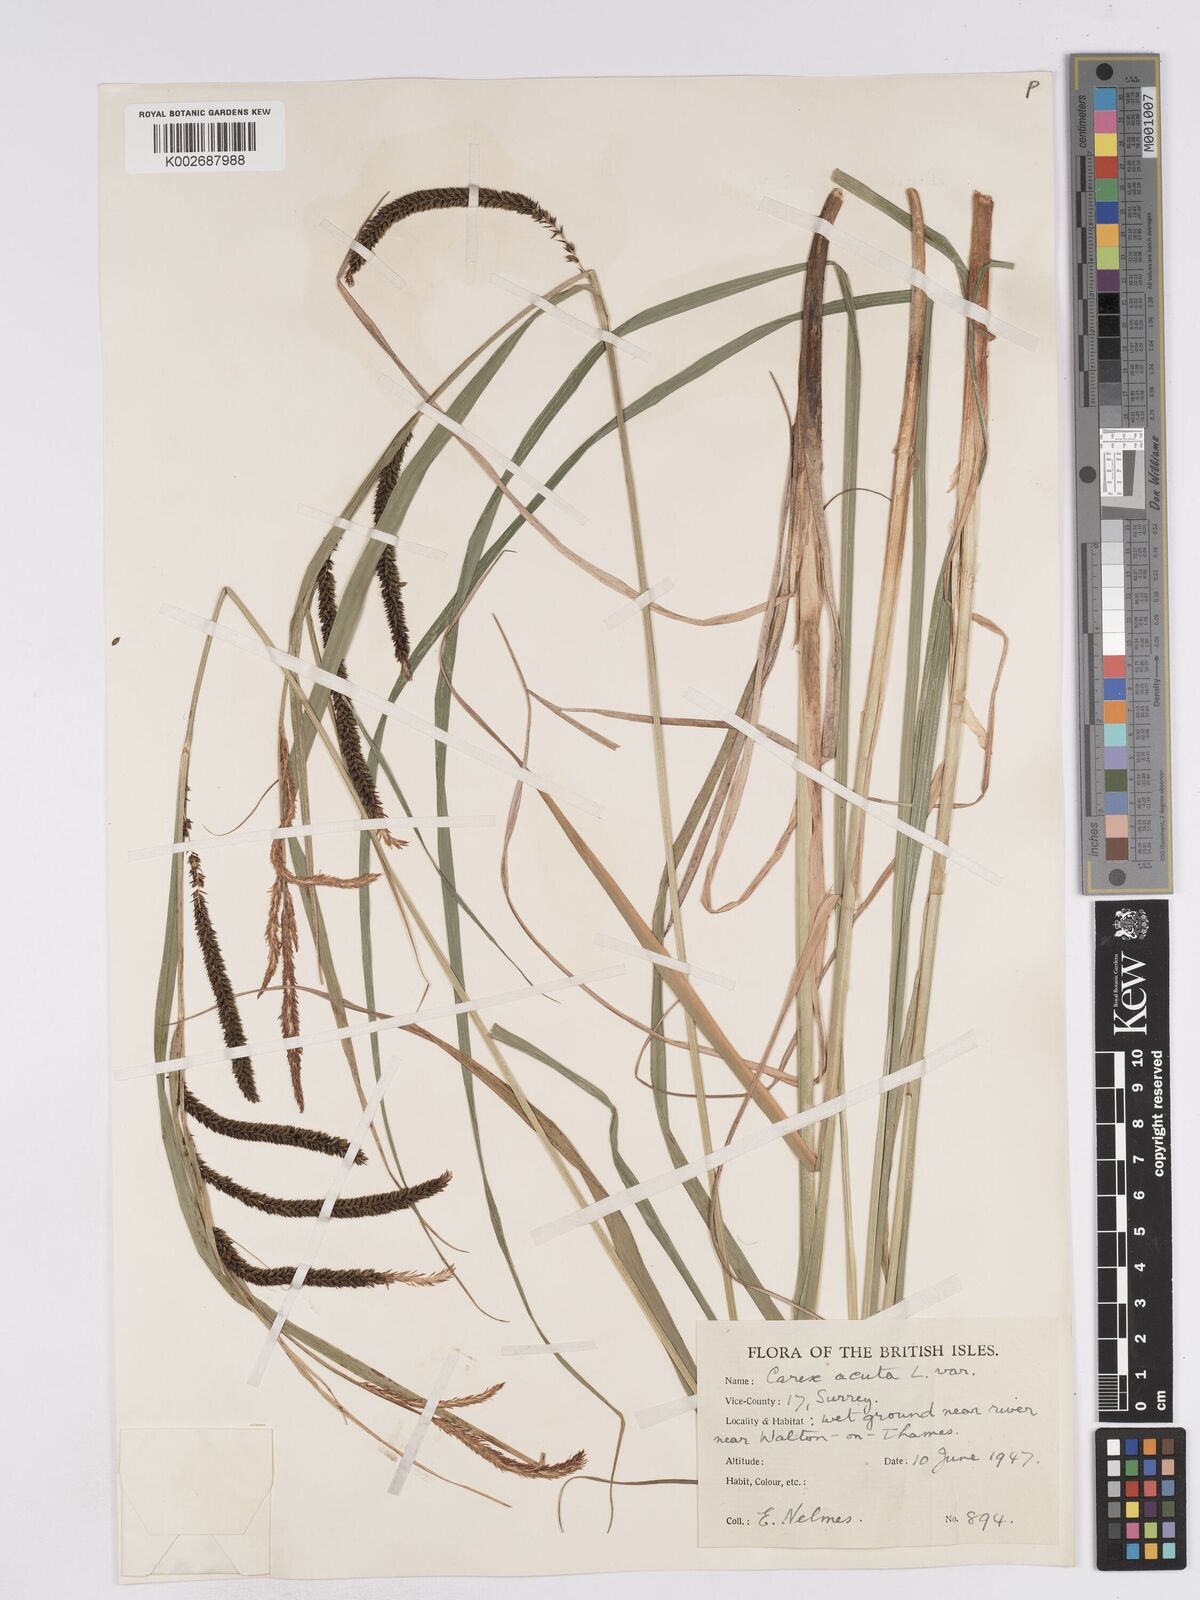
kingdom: Plantae
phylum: Tracheophyta
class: Liliopsida
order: Poales
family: Cyperaceae
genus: Carex
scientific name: Carex acuta
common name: Slender tufted-sedge
